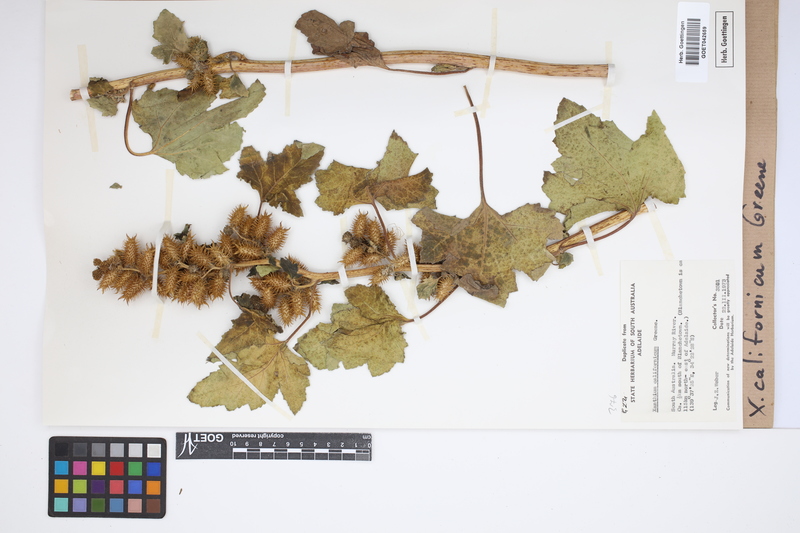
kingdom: Plantae
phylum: Tracheophyta
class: Magnoliopsida
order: Asterales
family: Asteraceae
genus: Xanthium
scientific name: Xanthium orientale
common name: Californian burr
